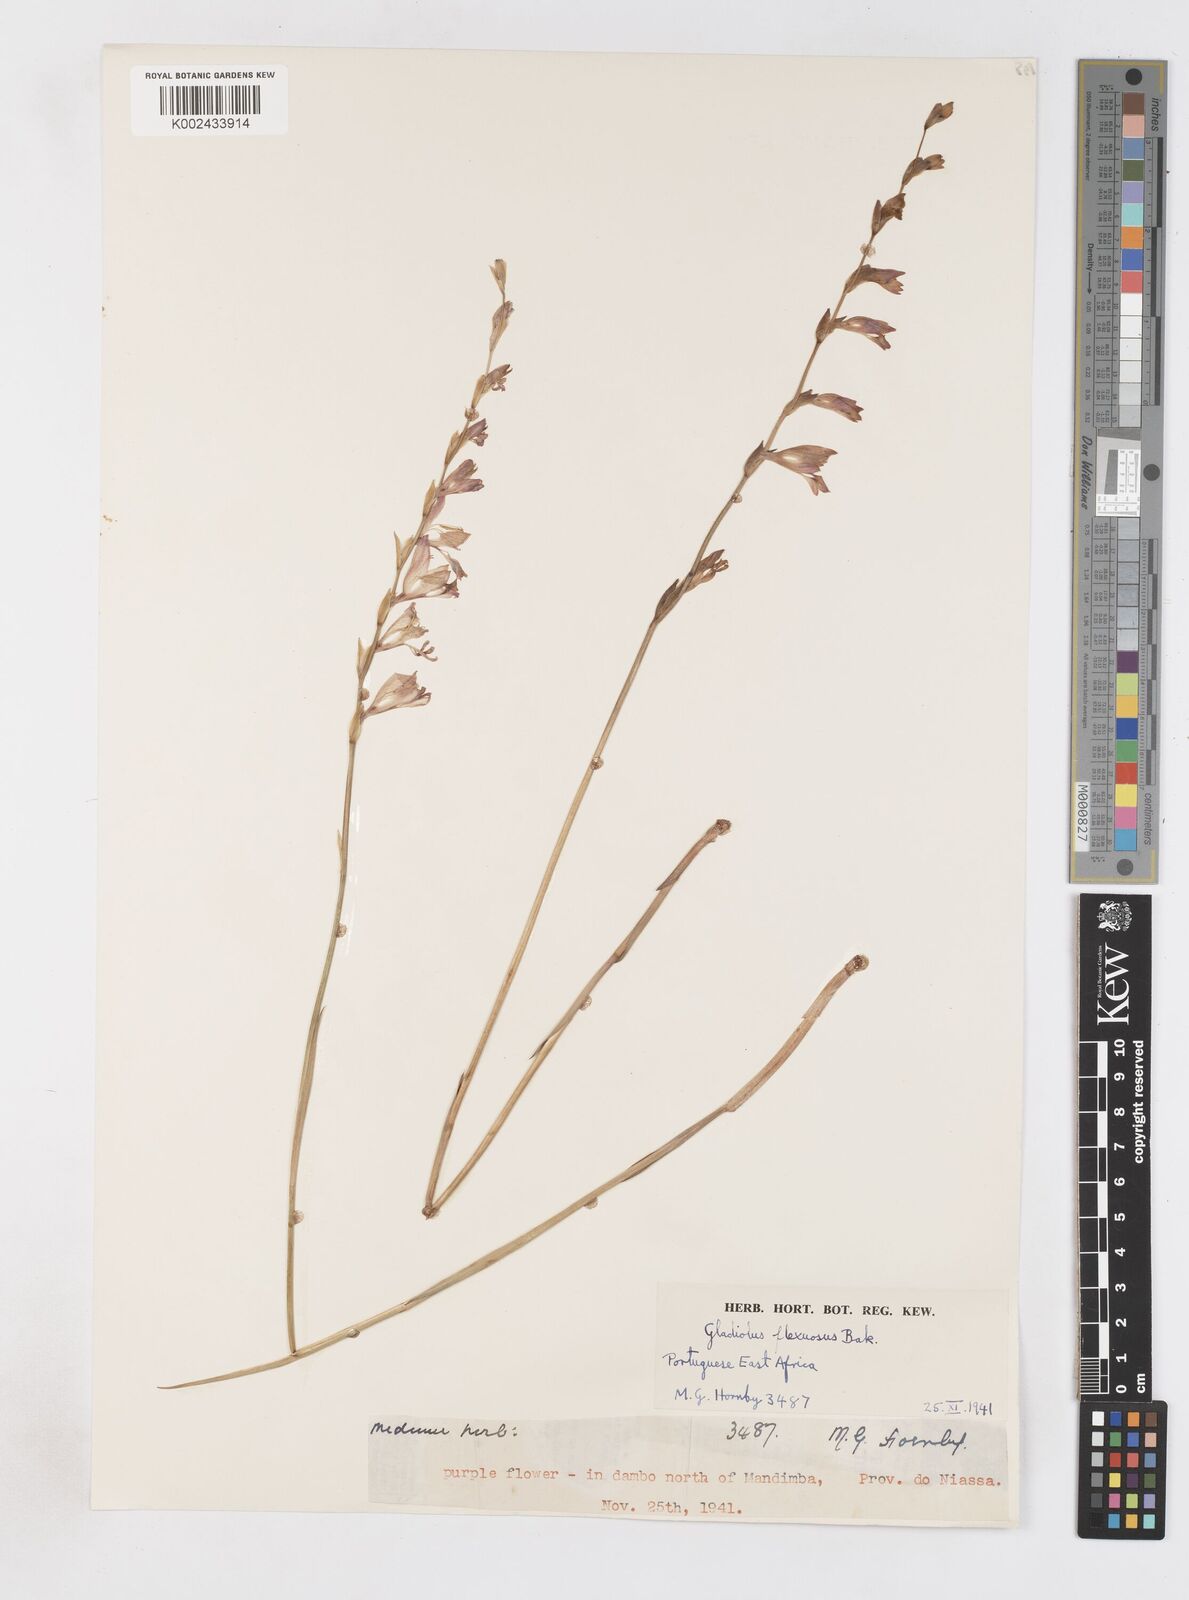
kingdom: Plantae
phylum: Tracheophyta
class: Liliopsida
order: Asparagales
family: Iridaceae
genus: Gladiolus
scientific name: Gladiolus atropurpureus
